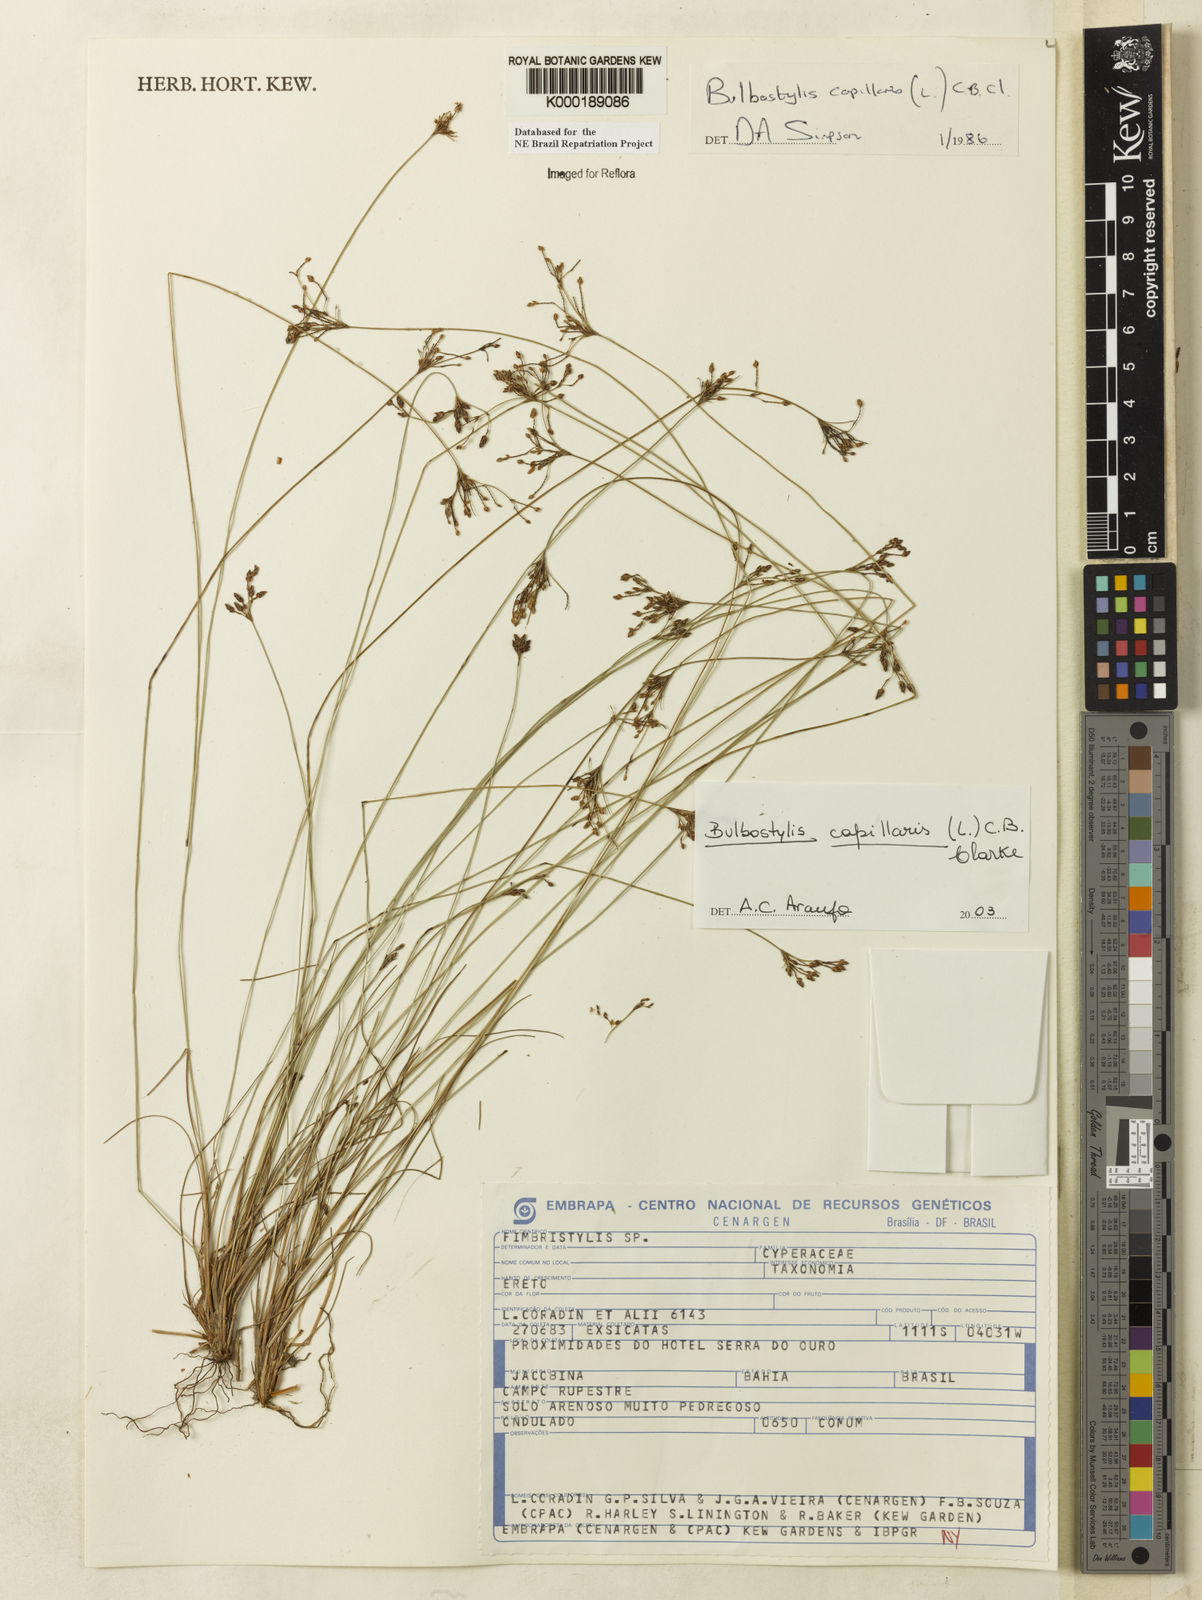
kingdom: Plantae
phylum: Tracheophyta
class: Liliopsida
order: Poales
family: Cyperaceae
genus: Bulbostylis
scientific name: Bulbostylis capillaris
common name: Densetuft hairsedge
